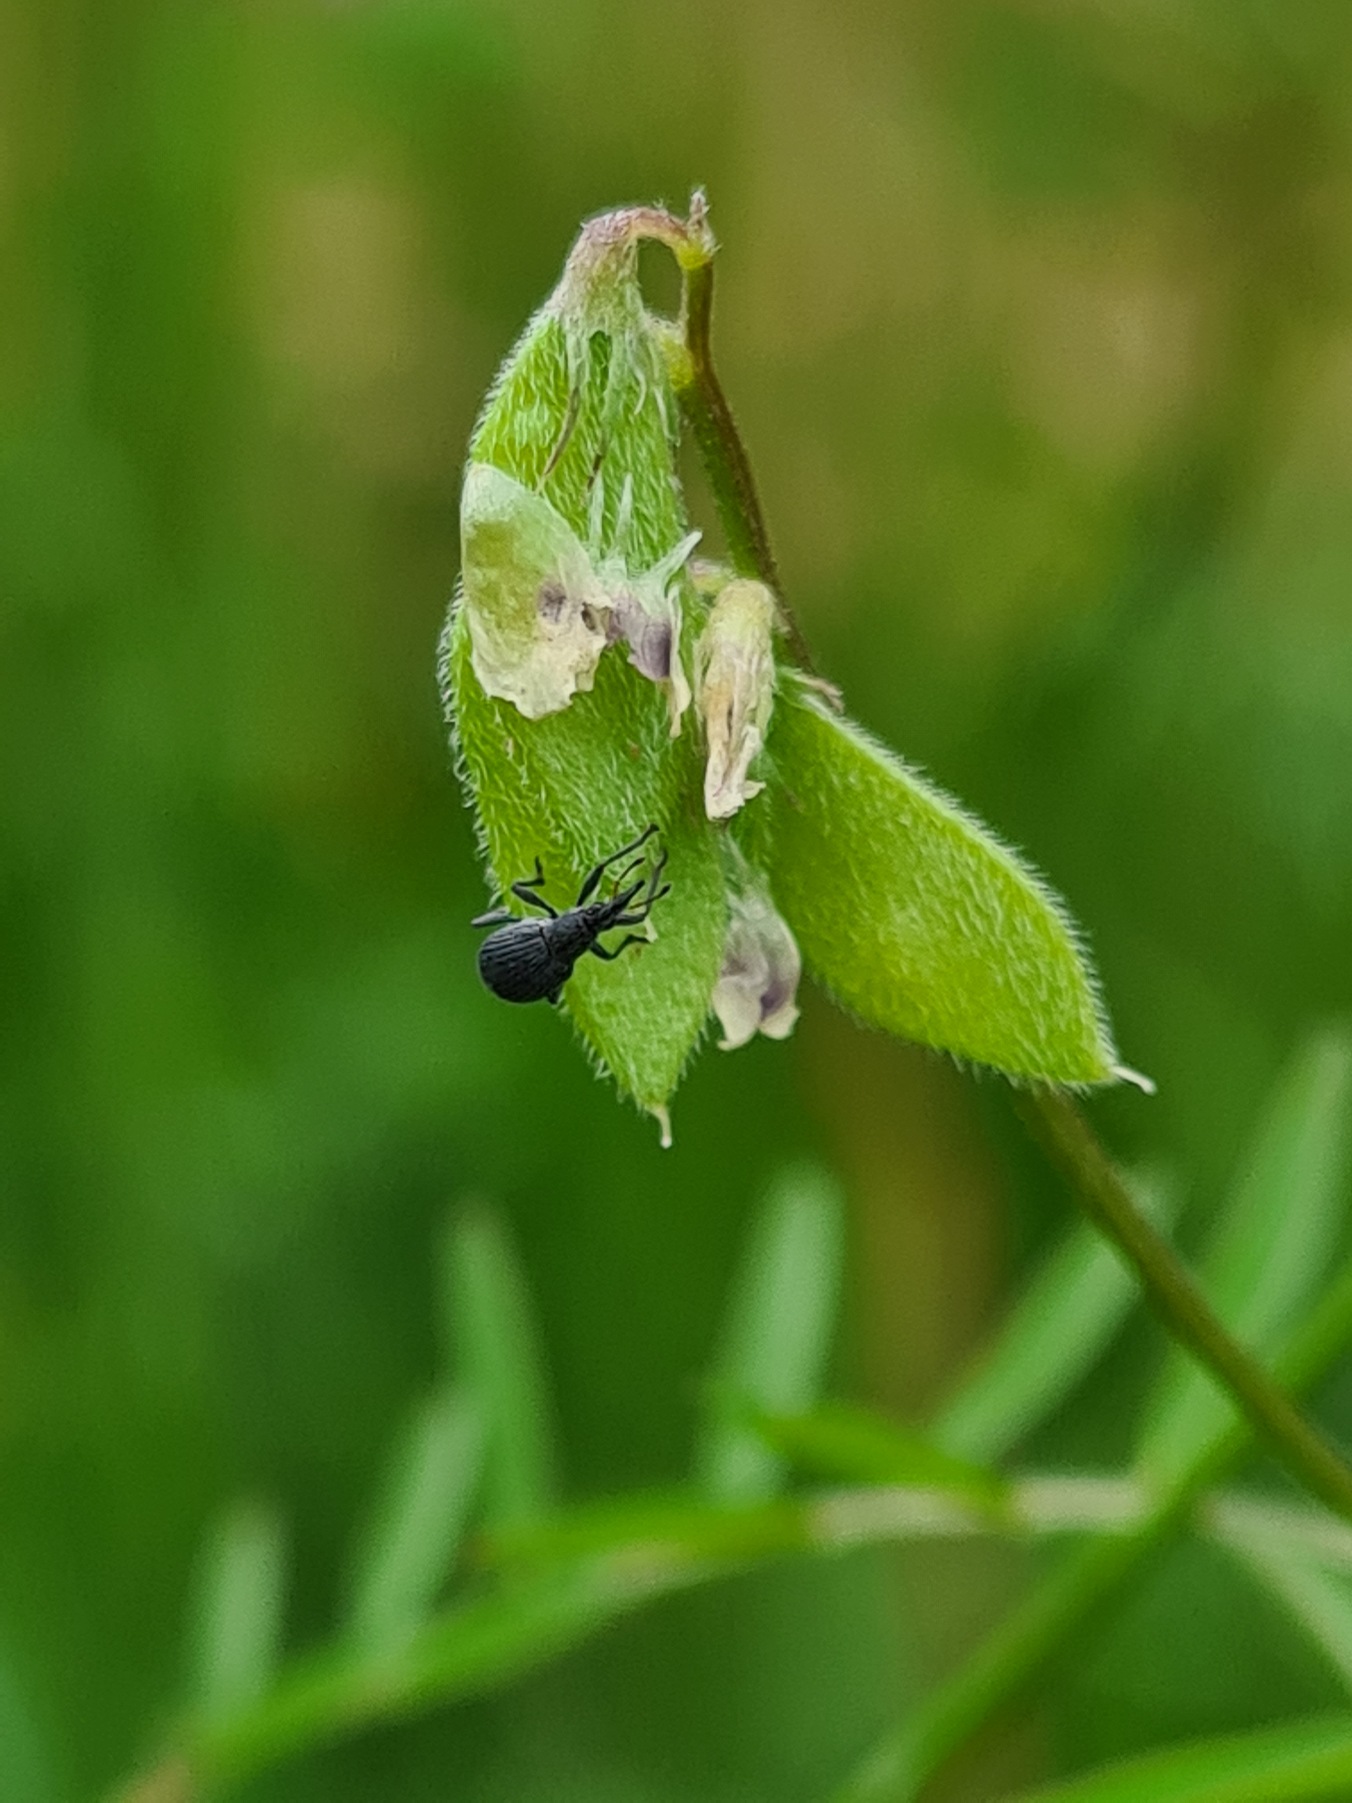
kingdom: Plantae
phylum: Tracheophyta
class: Magnoliopsida
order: Fabales
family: Fabaceae
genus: Vicia
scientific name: Vicia hirsuta
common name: Tofrøet vikke
